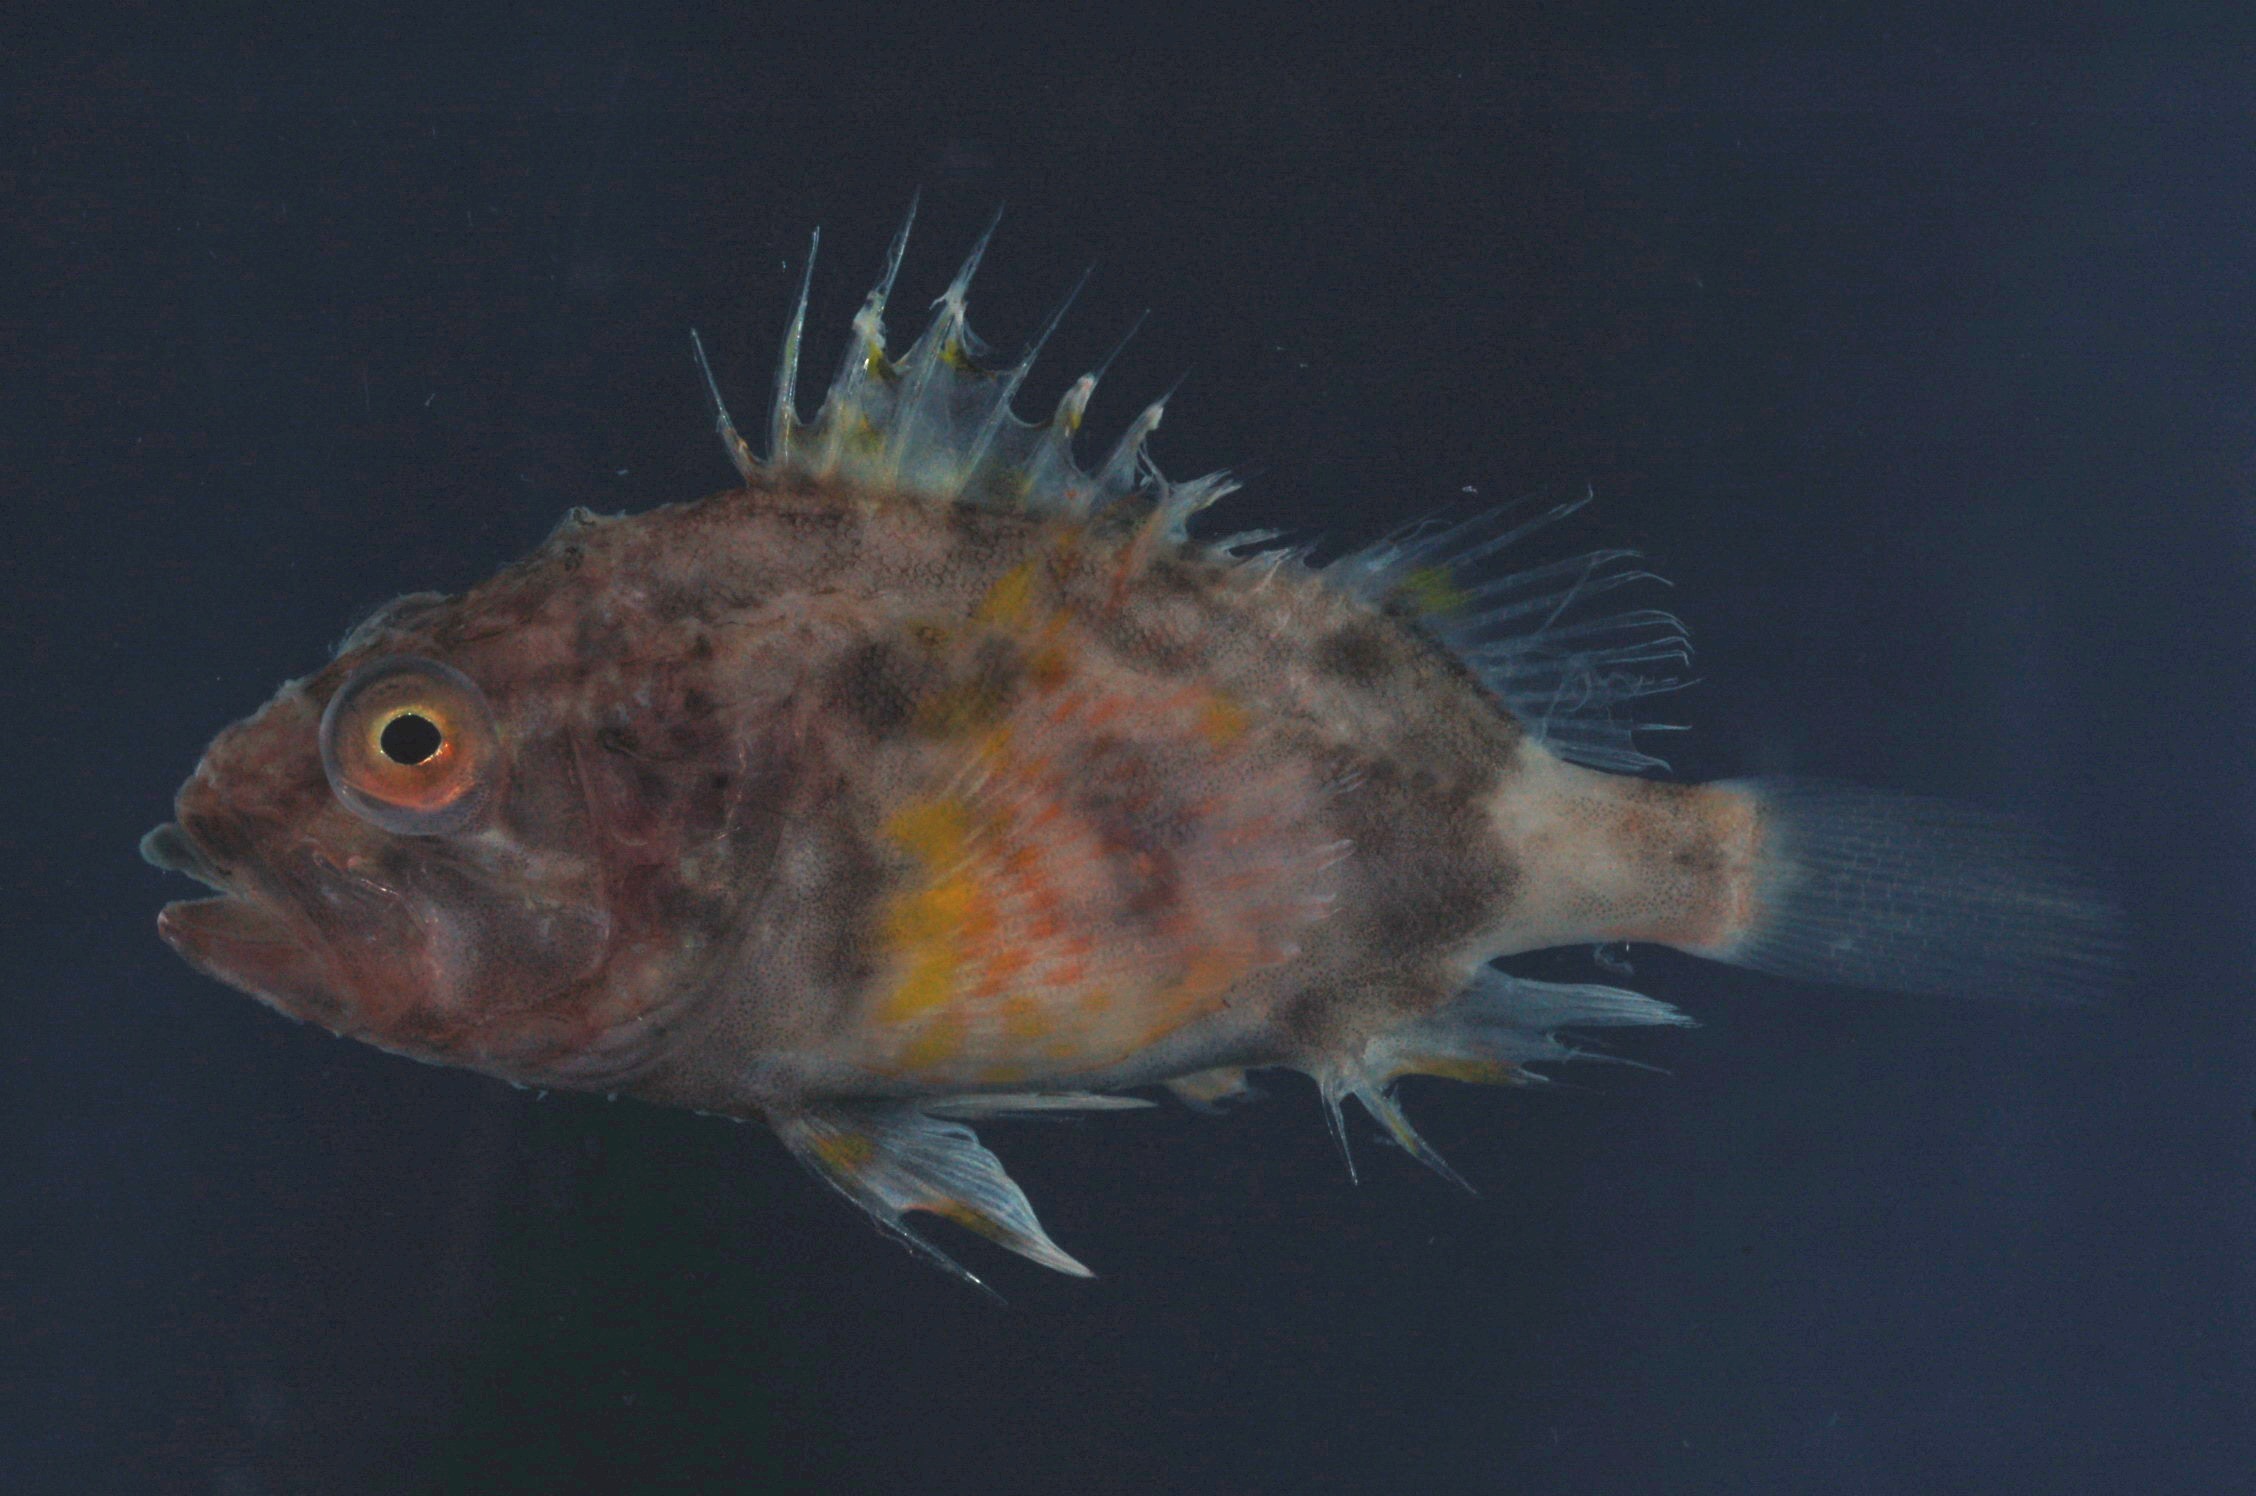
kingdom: Animalia
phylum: Chordata
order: Scorpaeniformes
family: Setarchidae
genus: Setarches
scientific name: Setarches guentheri
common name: Deepwater scorpionfish
